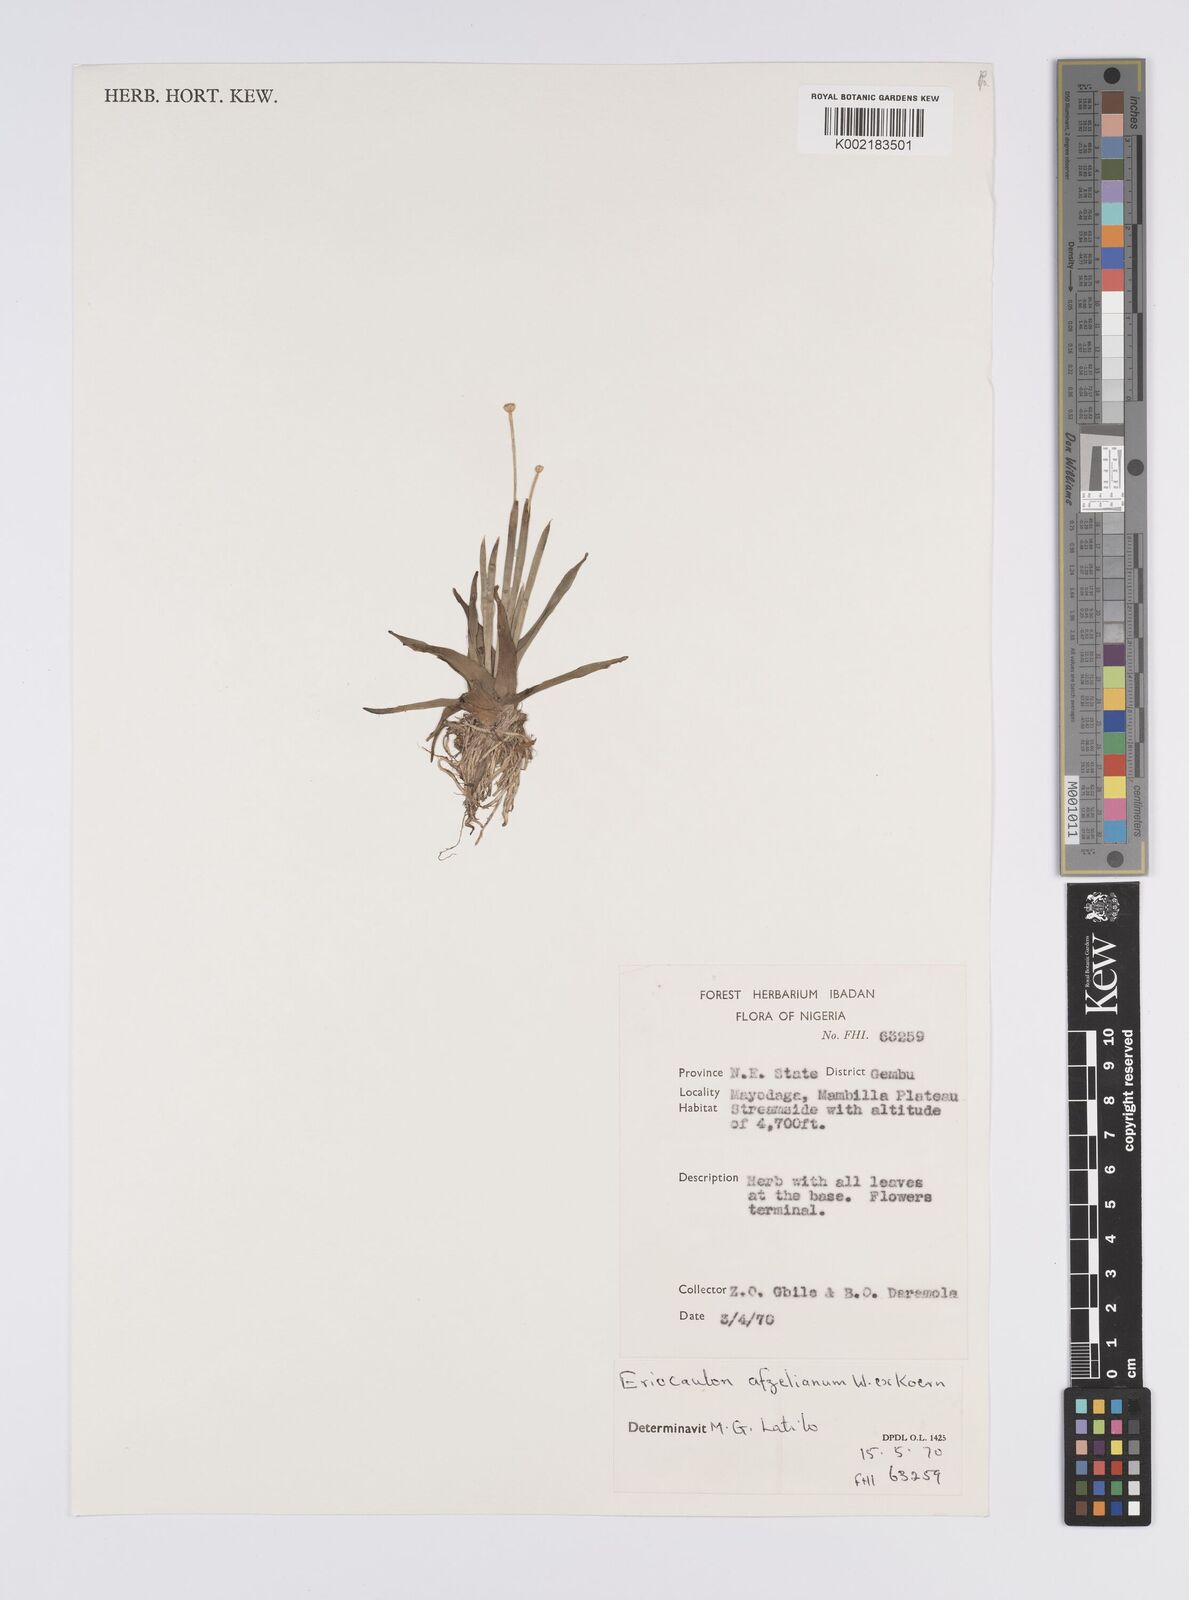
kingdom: Plantae
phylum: Tracheophyta
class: Liliopsida
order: Poales
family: Eriocaulaceae
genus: Eriocaulon
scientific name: Eriocaulon afzelianum
